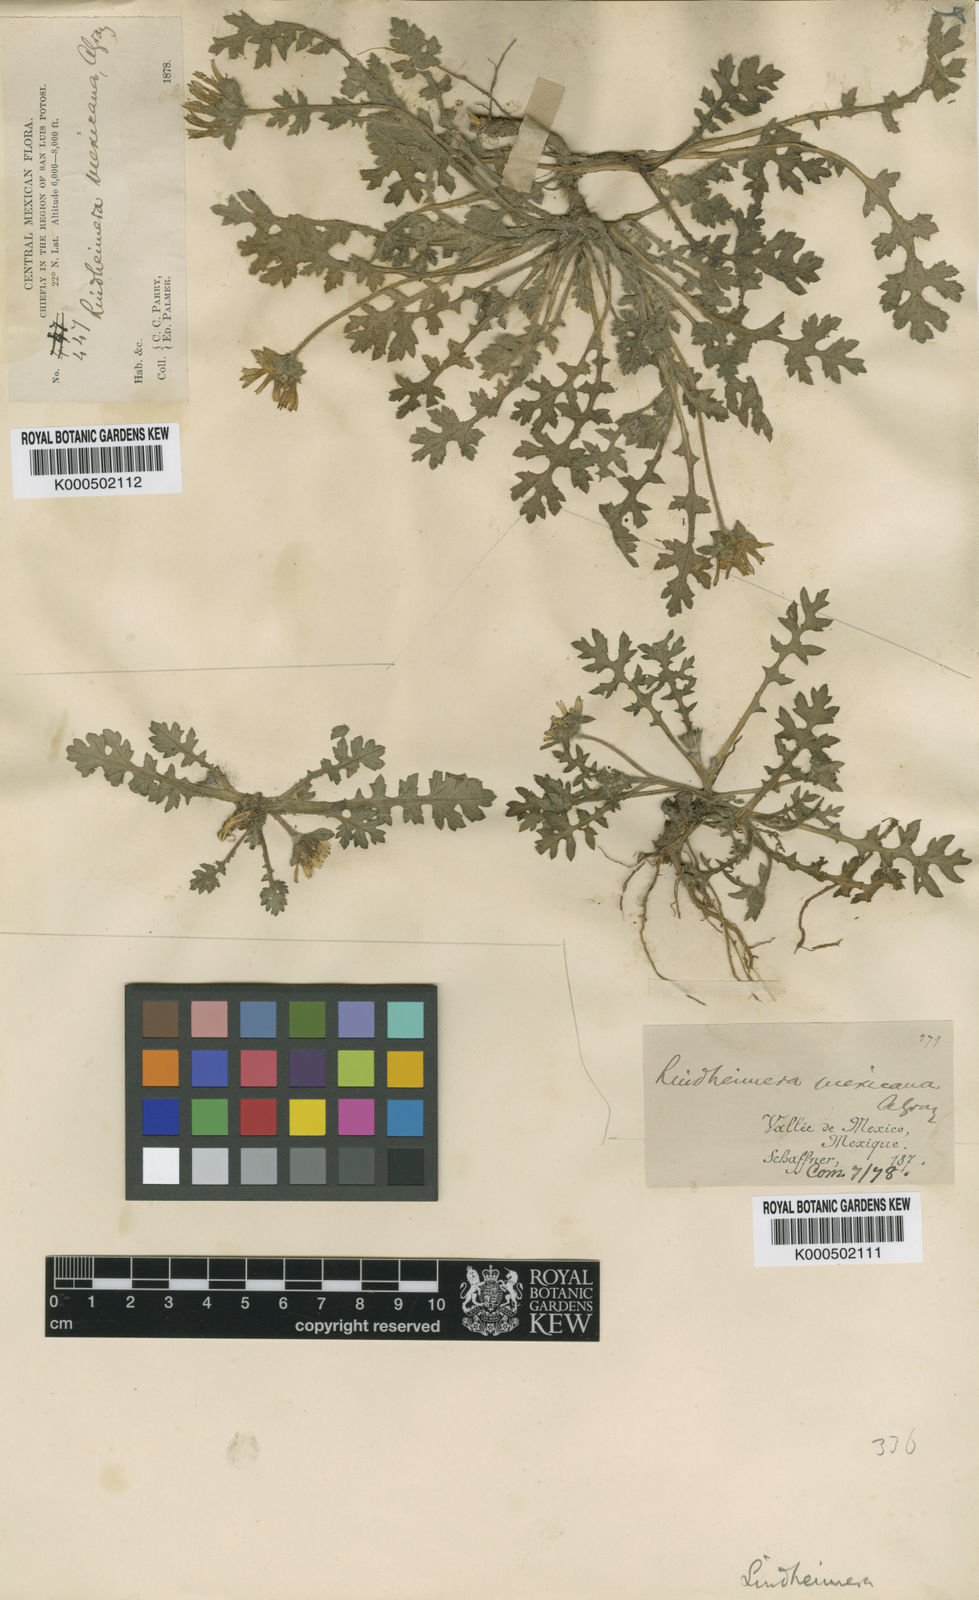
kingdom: Plantae
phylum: Tracheophyta
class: Magnoliopsida
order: Asterales
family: Asteraceae
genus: Dugesia
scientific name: Dugesia mexicana
